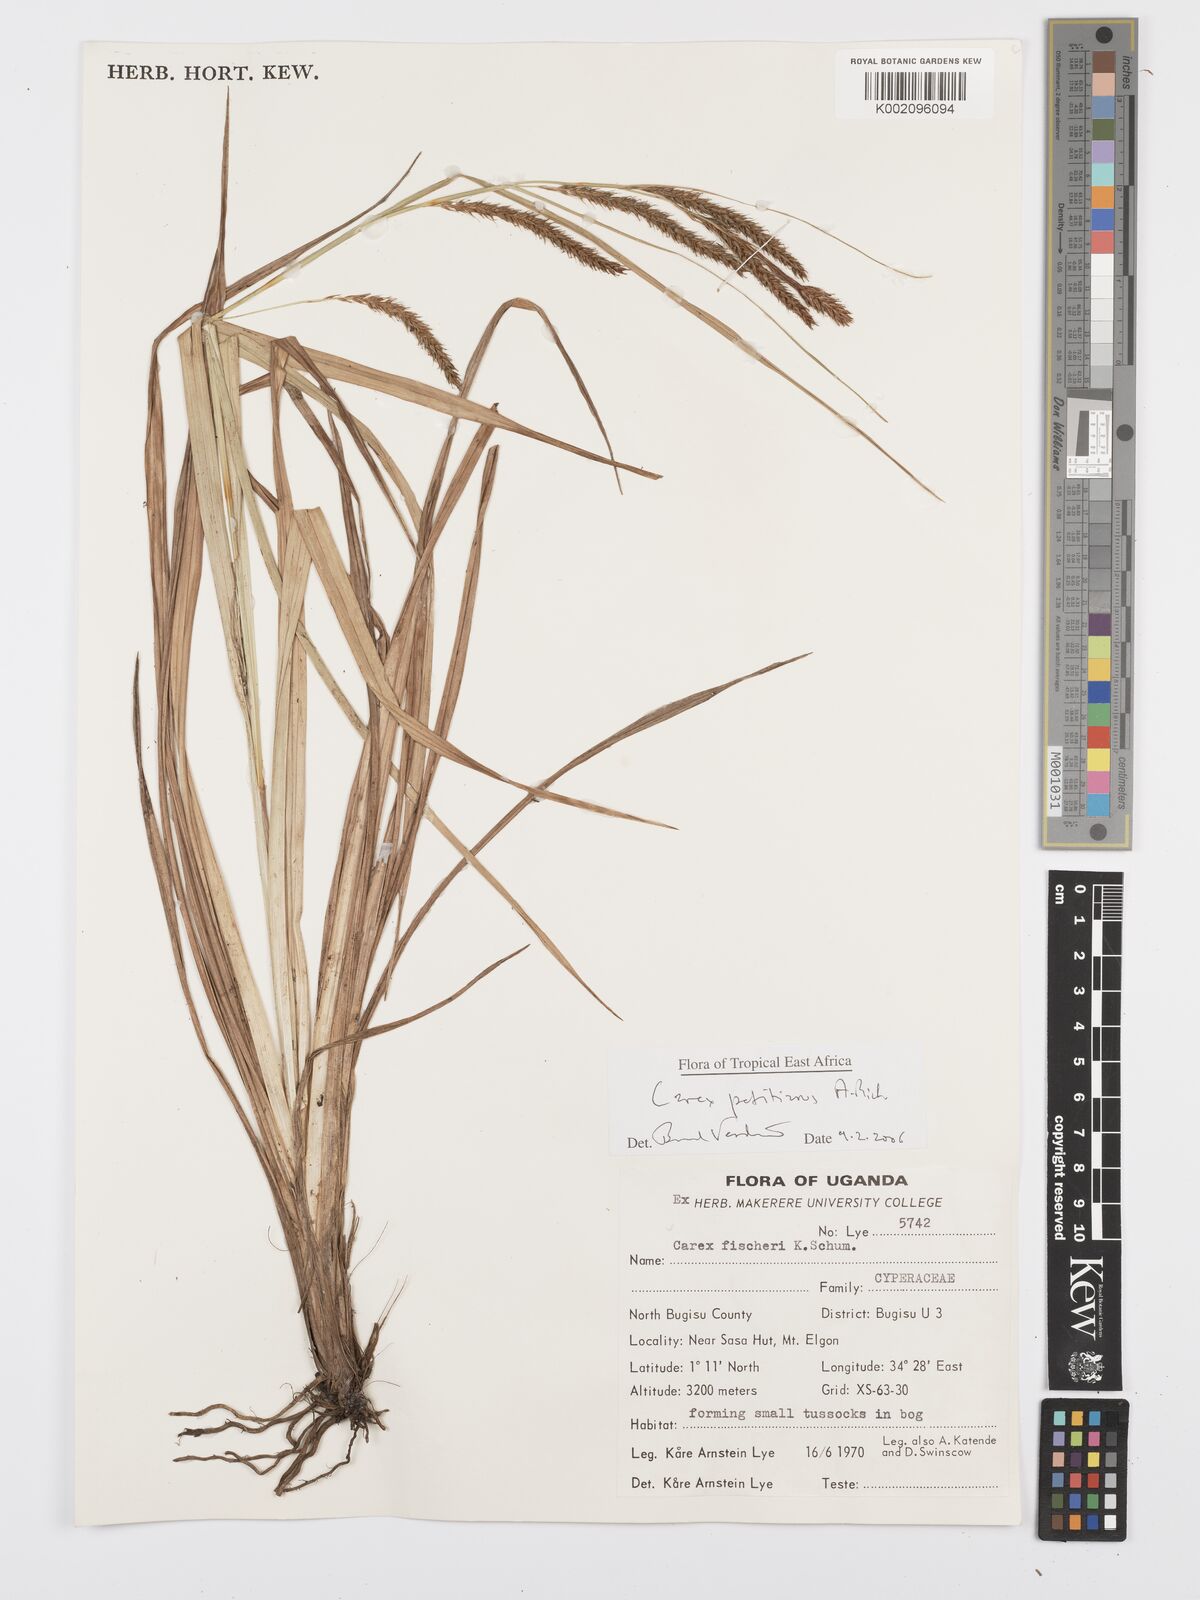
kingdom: Plantae
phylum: Tracheophyta
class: Liliopsida
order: Poales
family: Cyperaceae
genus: Carex
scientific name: Carex fischeri
